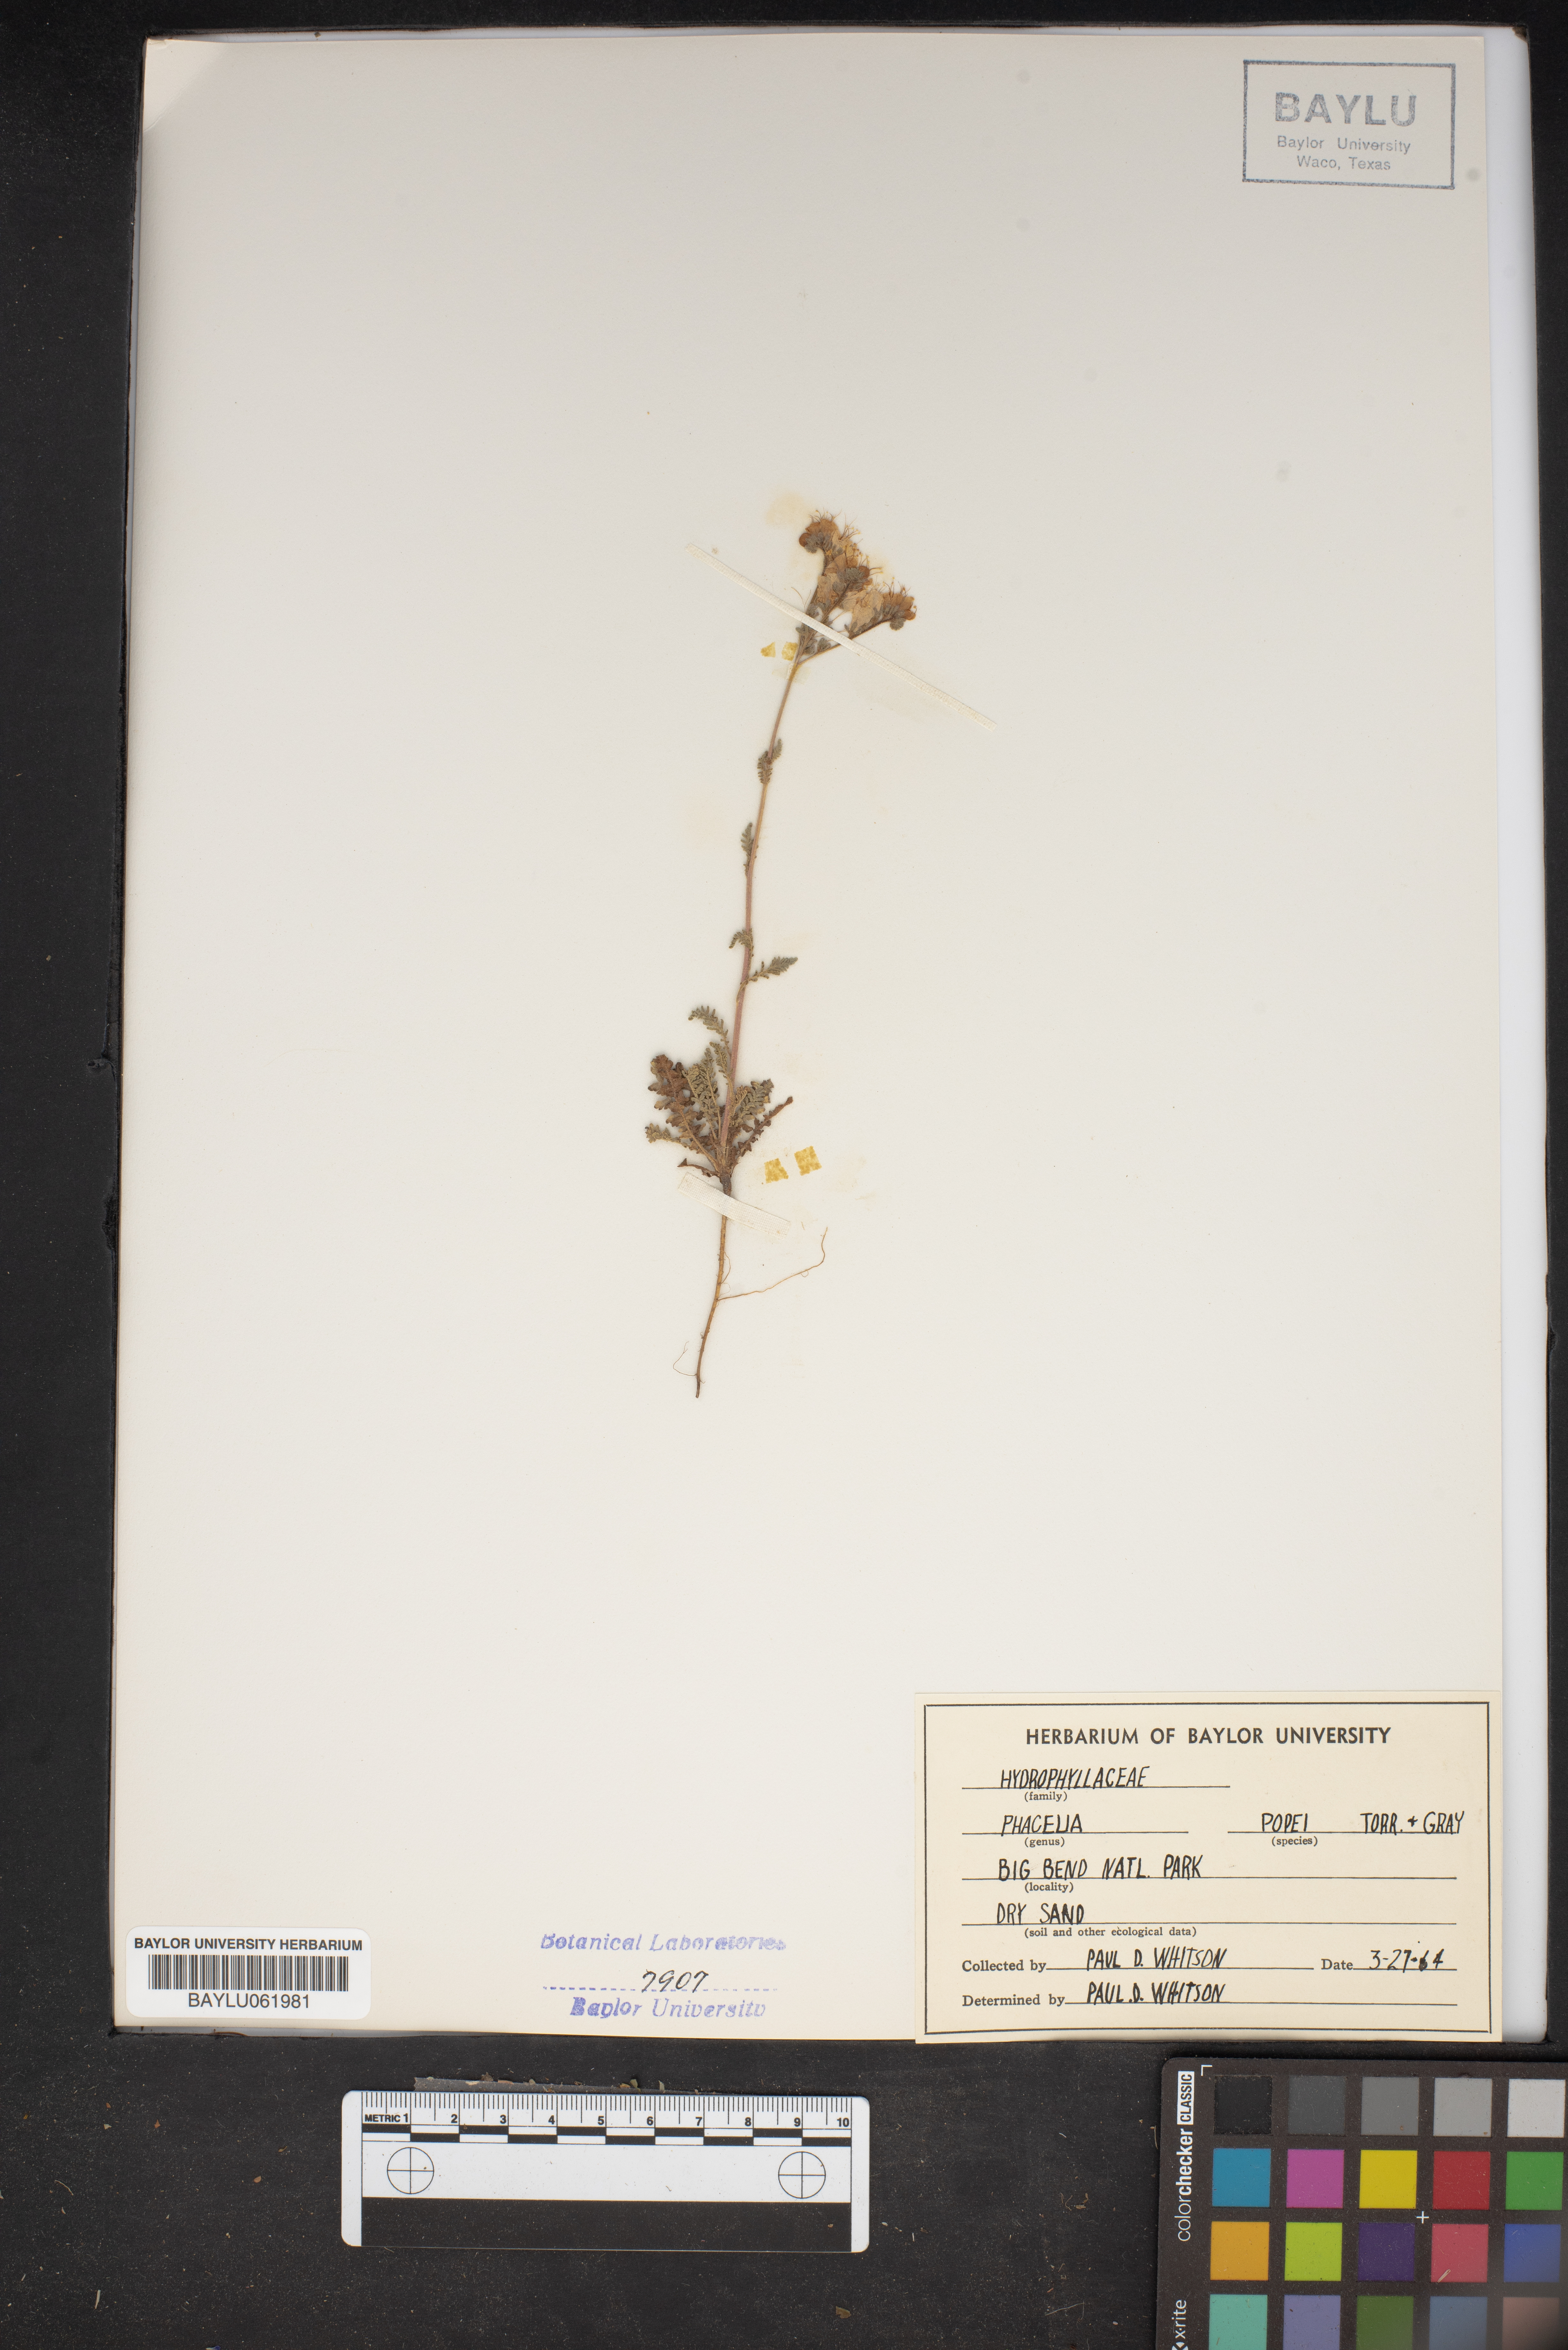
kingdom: Plantae
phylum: Tracheophyta
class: Magnoliopsida
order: Boraginales
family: Hydrophyllaceae
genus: Phacelia
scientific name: Phacelia popei
